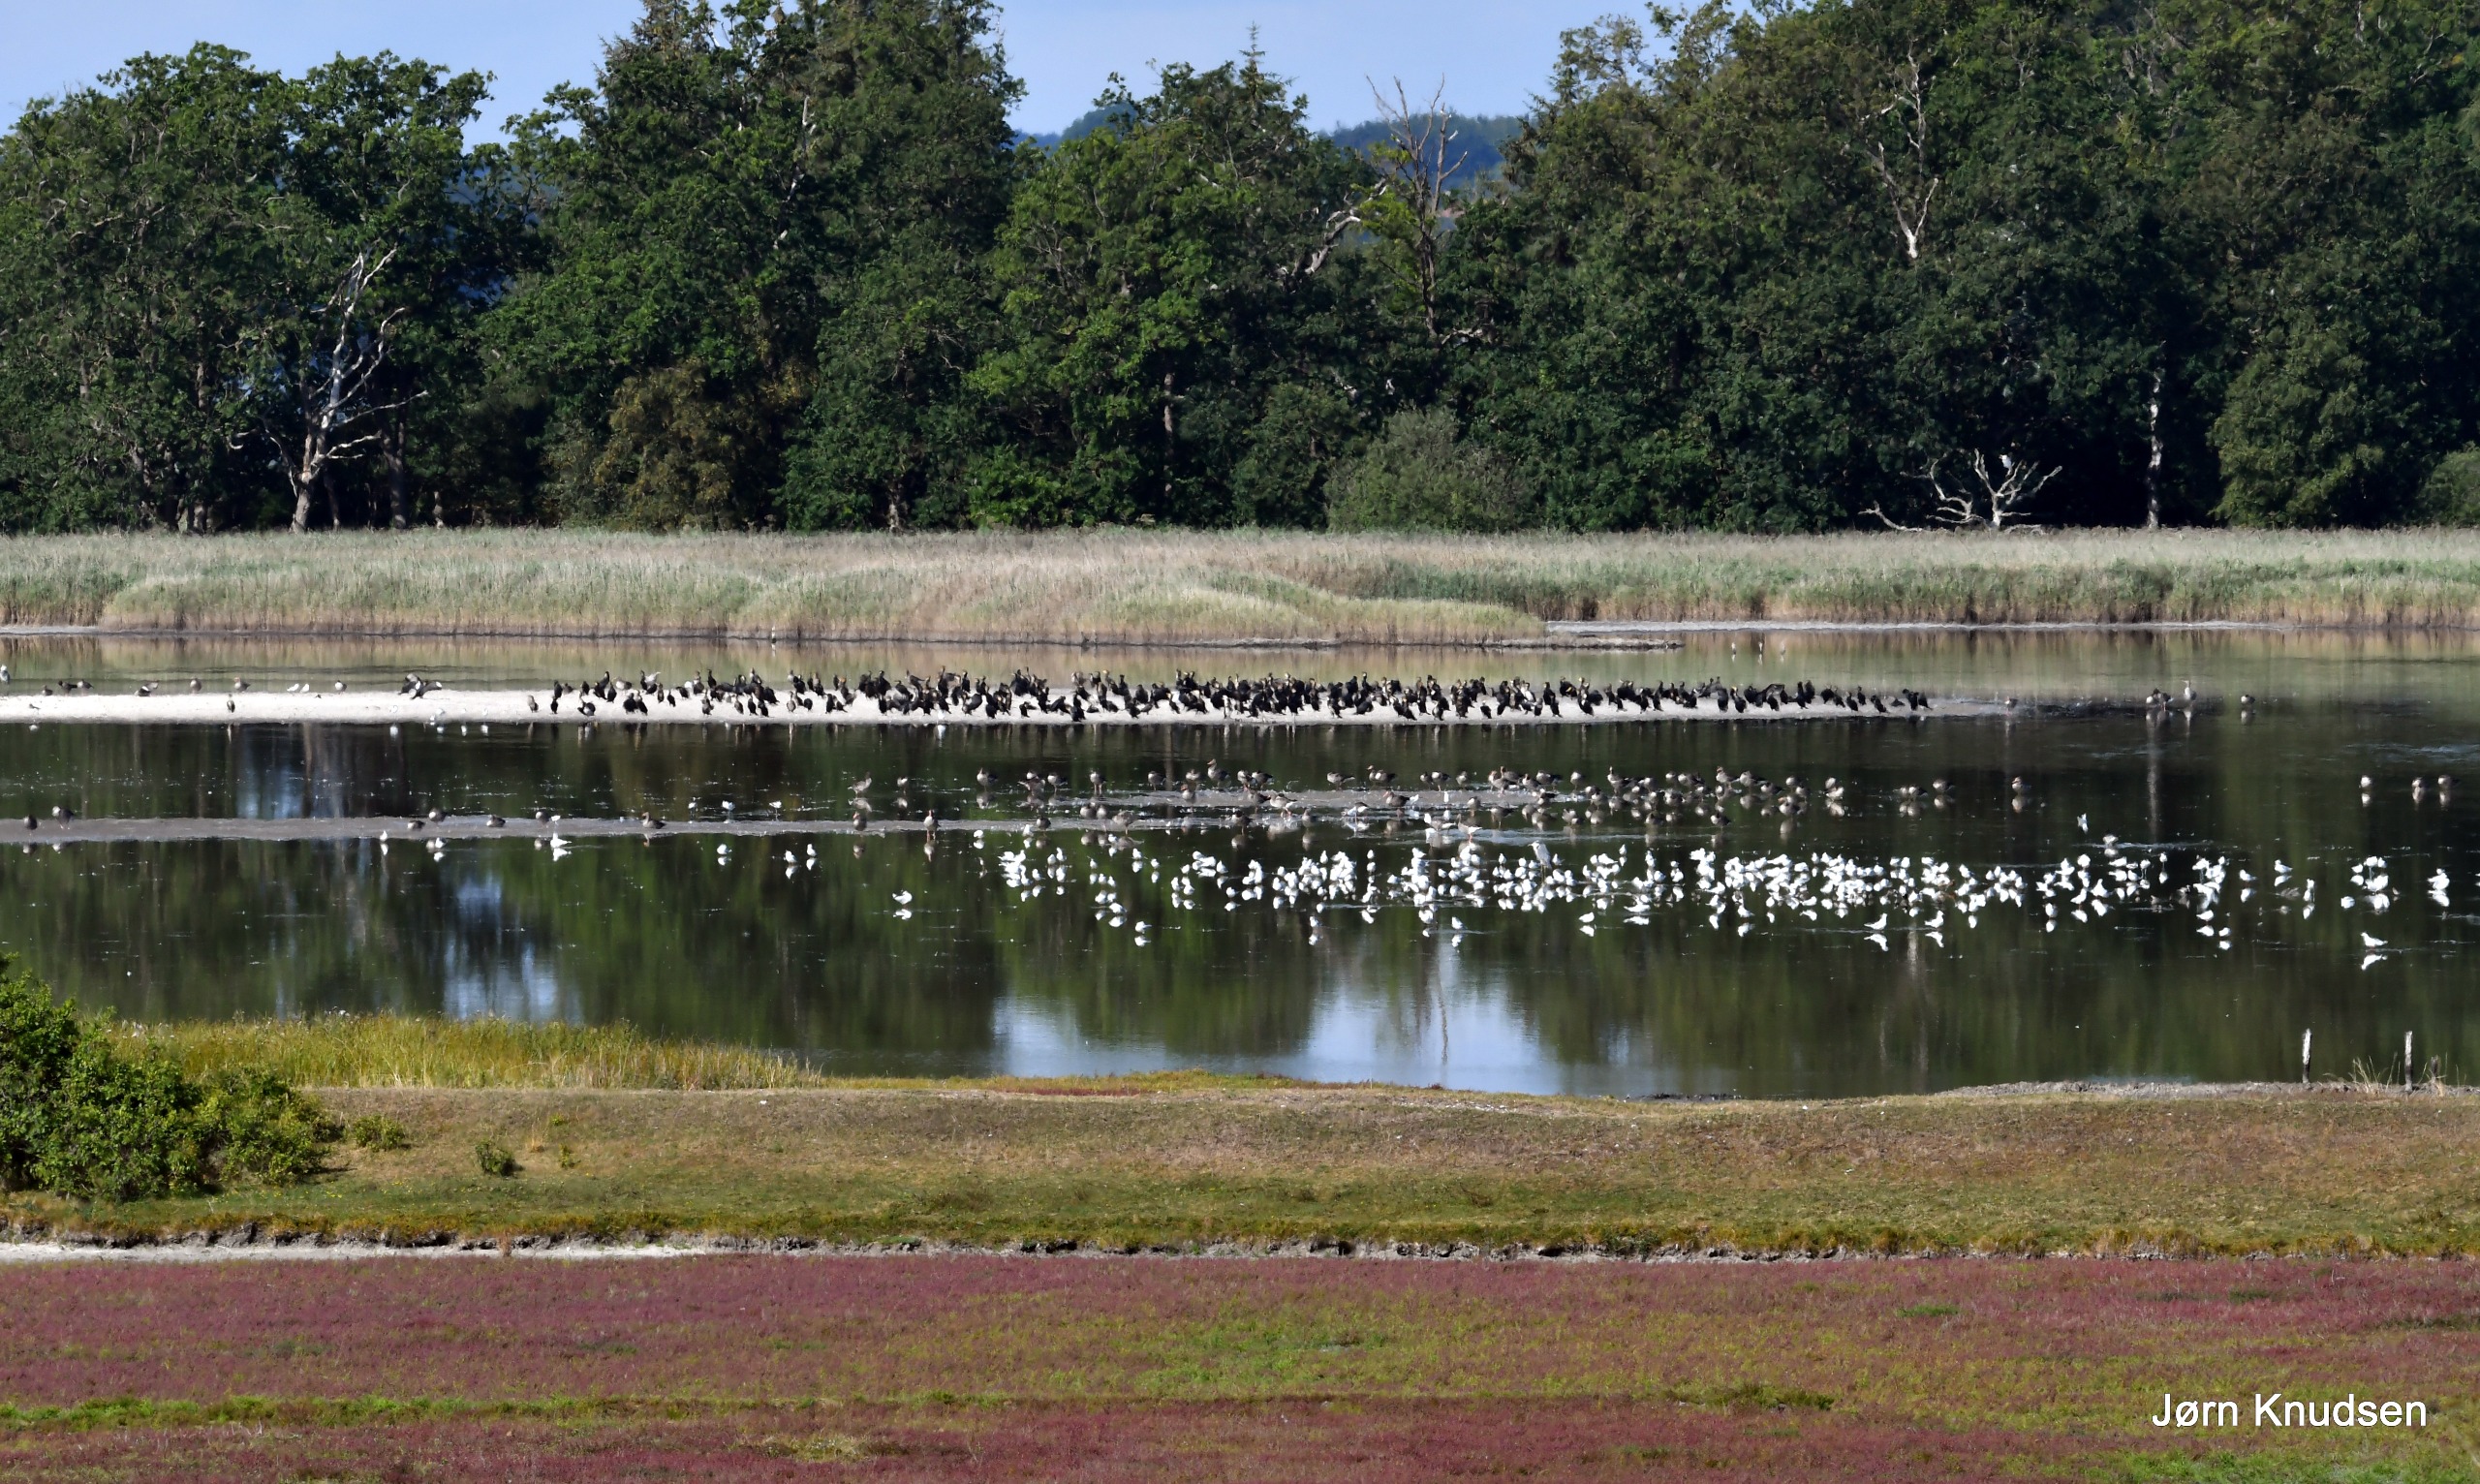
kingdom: Animalia
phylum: Chordata
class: Aves
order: Anseriformes
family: Anatidae
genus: Anser
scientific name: Anser anser
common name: Grågås
